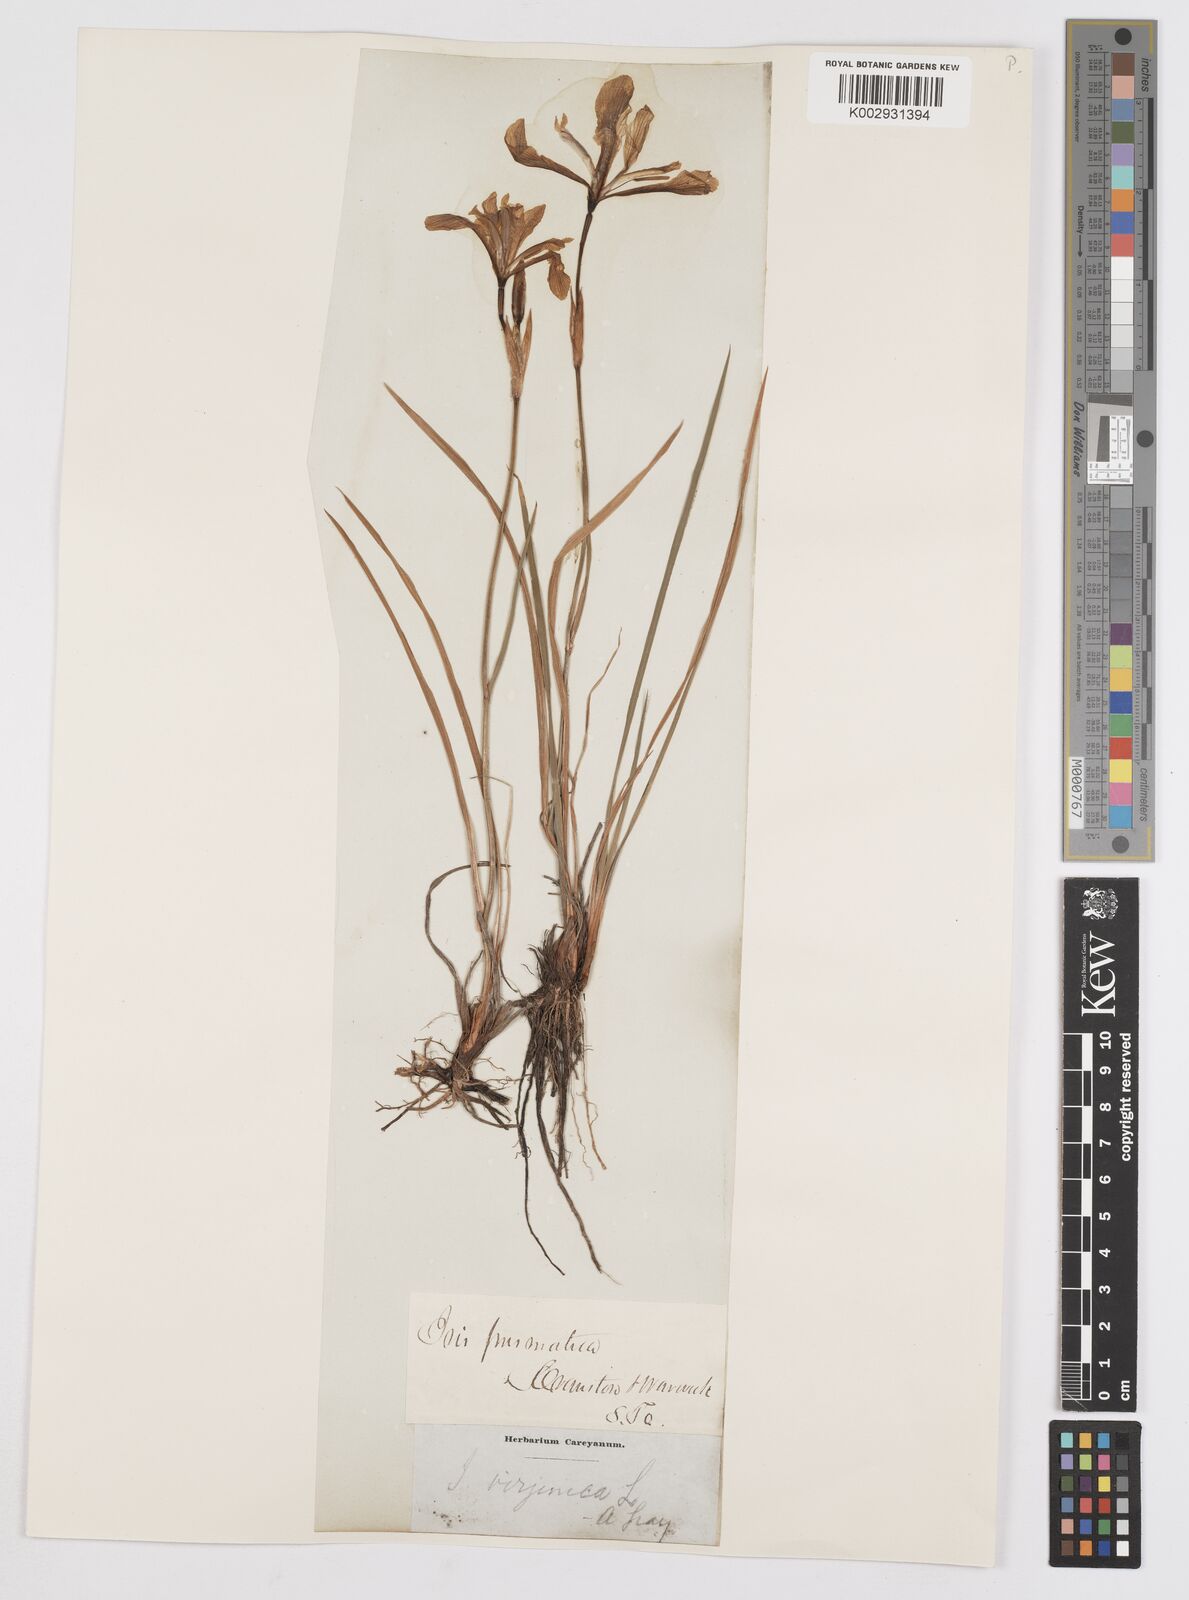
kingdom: Plantae
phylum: Tracheophyta
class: Liliopsida
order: Asparagales
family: Iridaceae
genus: Iris
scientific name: Iris prismatica
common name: Slender blue flag
